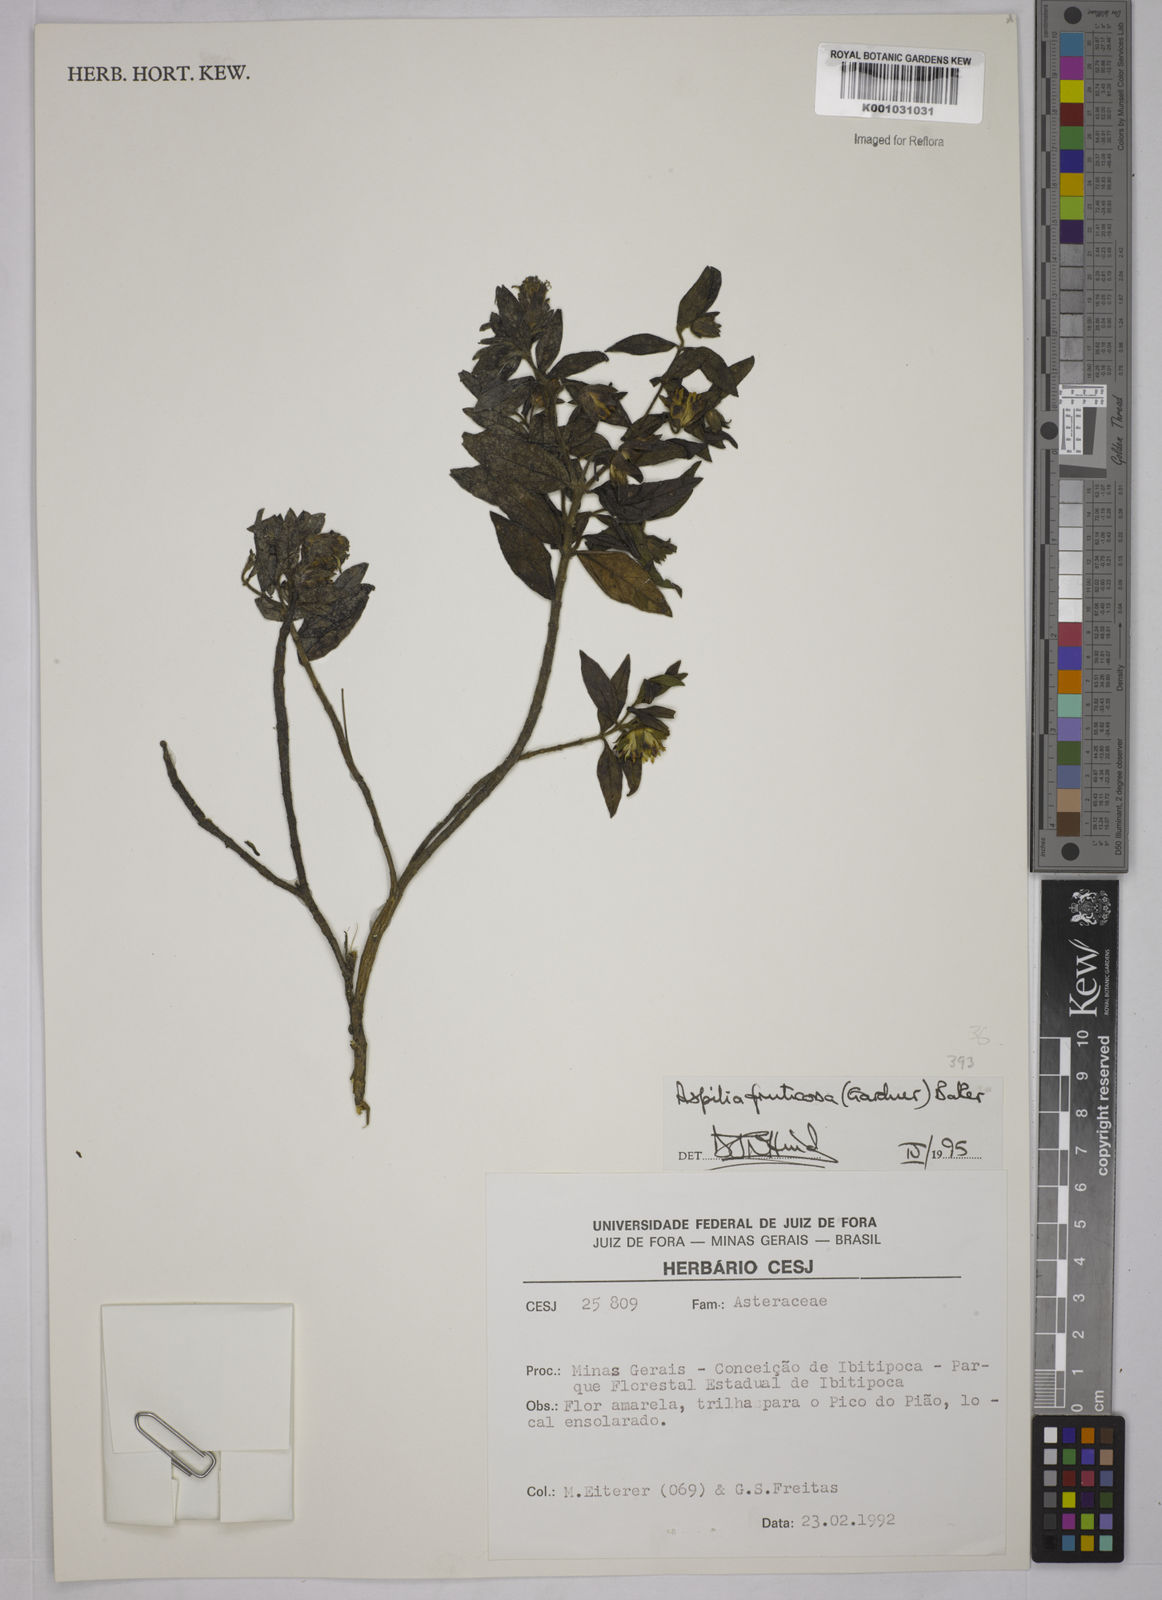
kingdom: Plantae
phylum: Tracheophyta
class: Magnoliopsida
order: Asterales
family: Asteraceae
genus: Wedelia
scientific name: Wedelia frustrata
